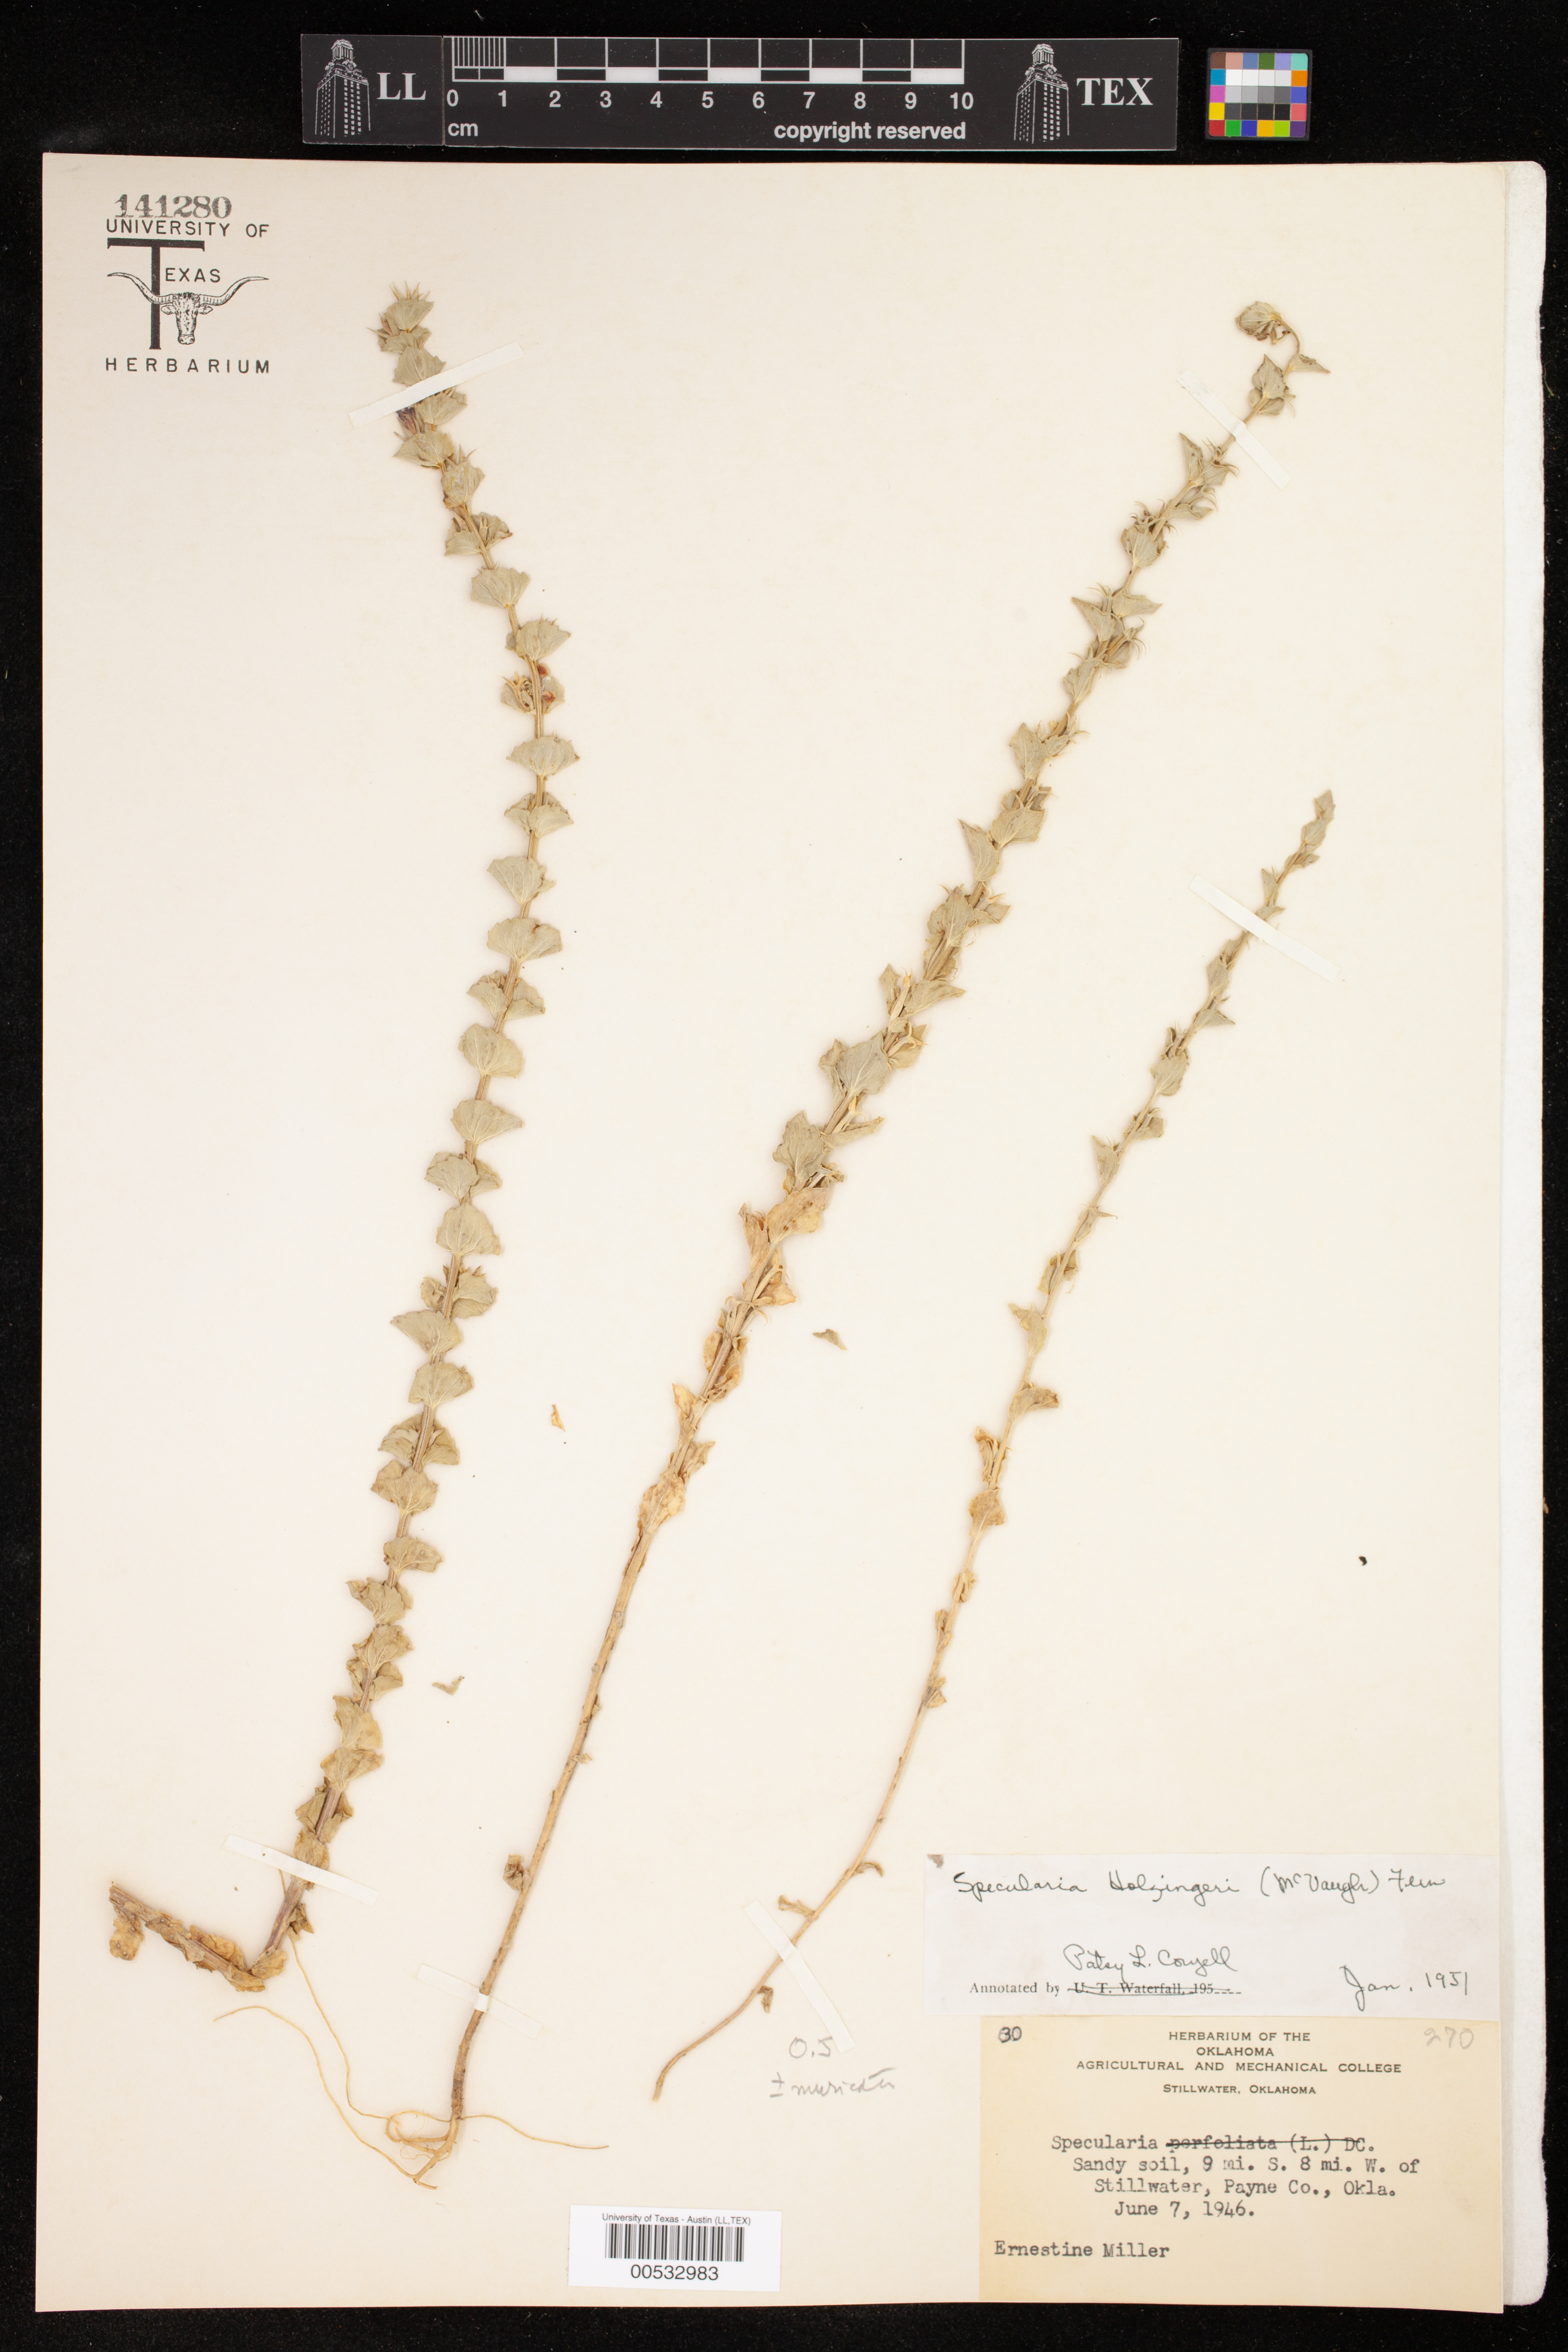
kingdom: Plantae
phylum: Tracheophyta
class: Magnoliopsida
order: Asterales
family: Campanulaceae
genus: Triodanis
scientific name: Triodanis holzingeri
